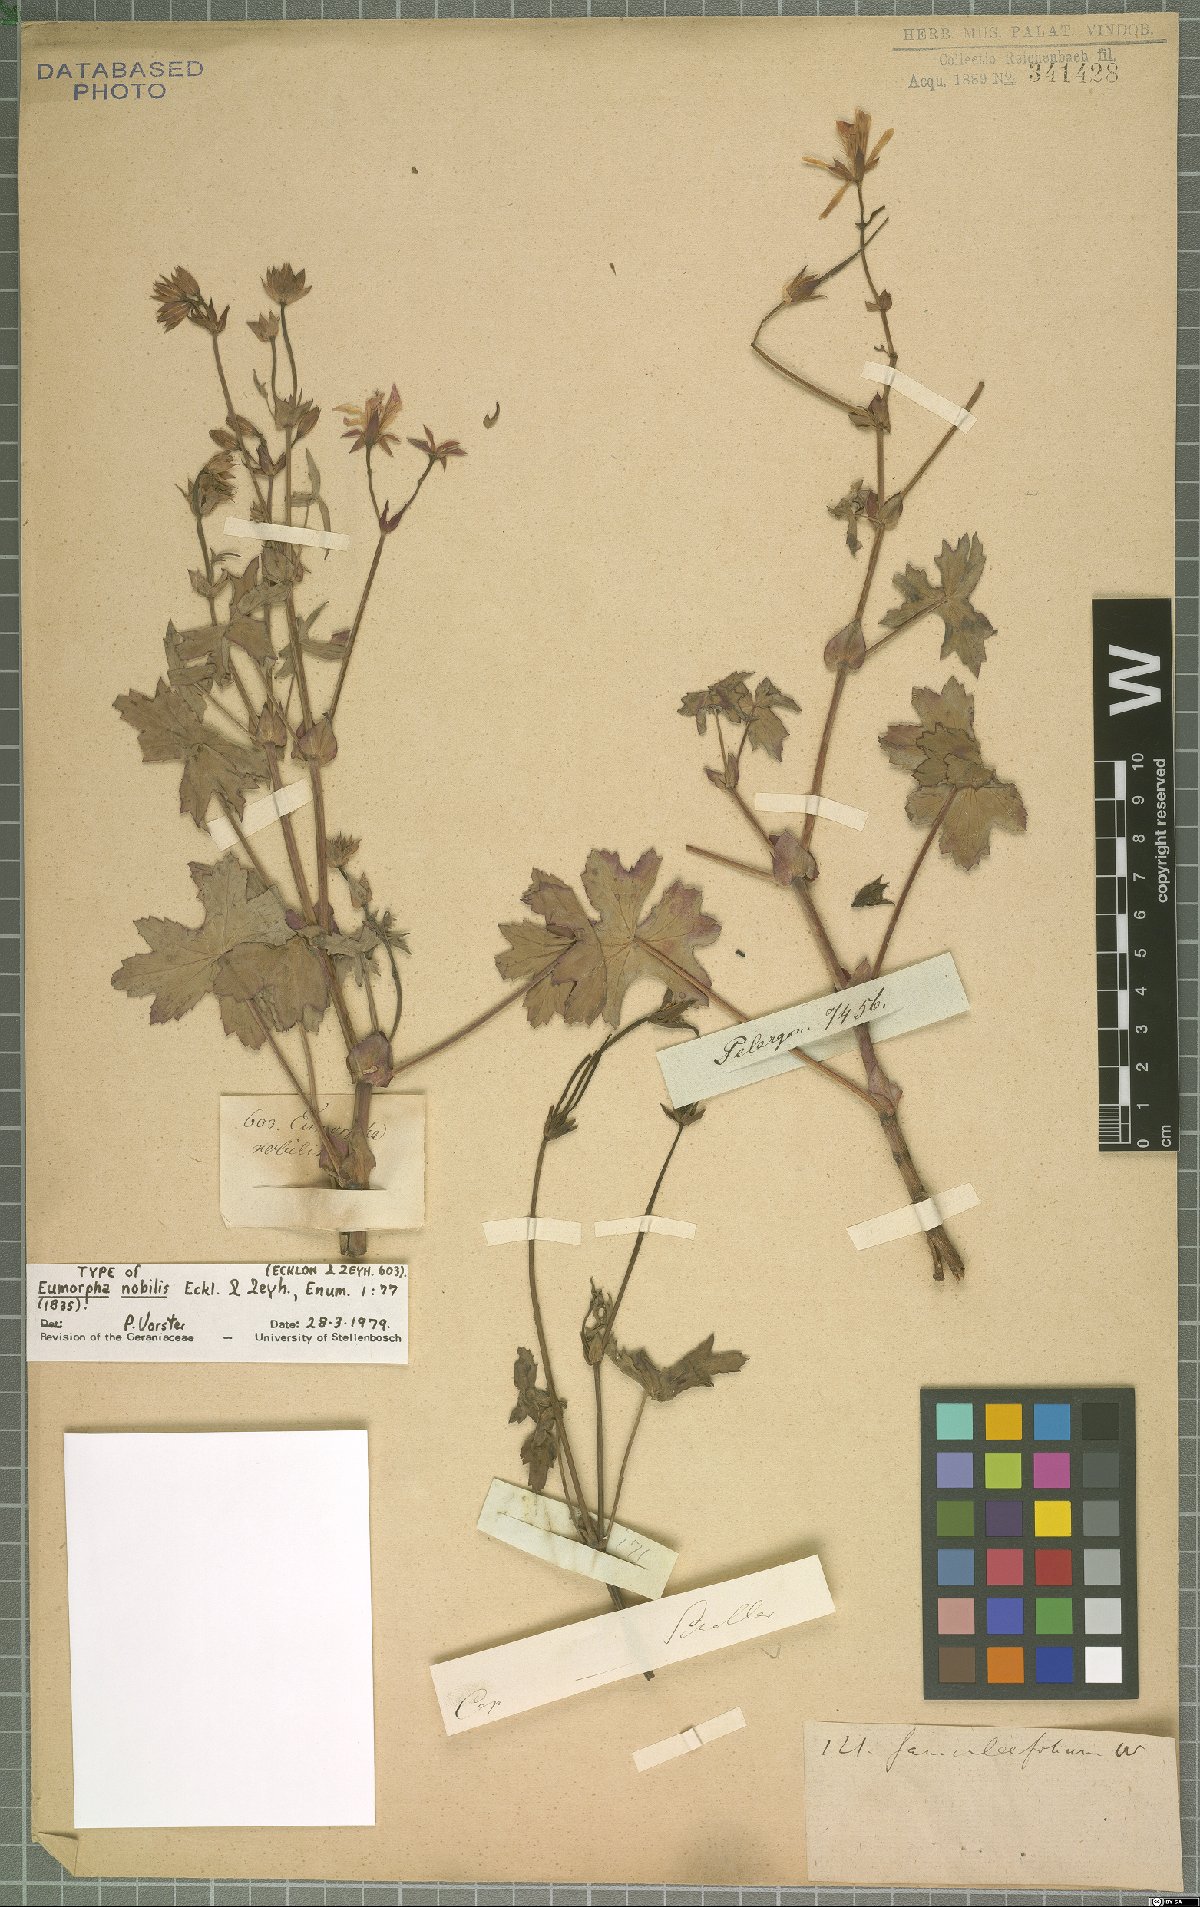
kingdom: Plantae
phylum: Tracheophyta
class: Magnoliopsida
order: Geraniales
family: Geraniaceae
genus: Pelargonium
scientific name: Pelargonium tabulare
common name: Table mountain pelargonium
